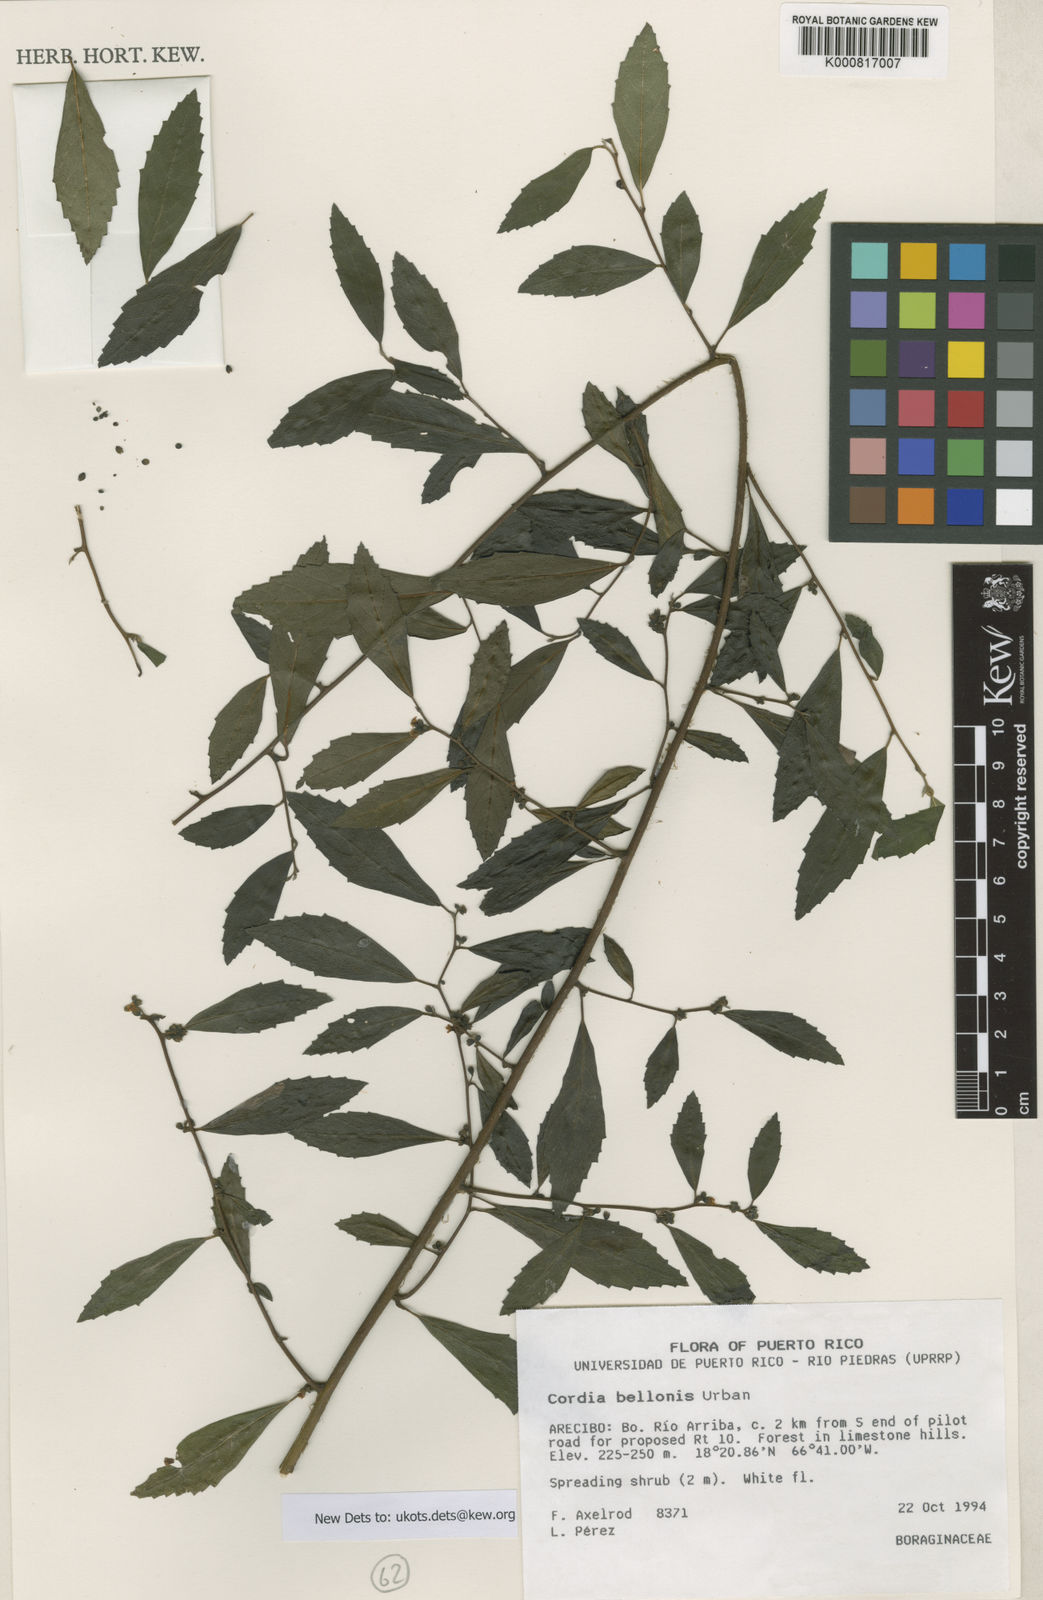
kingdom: Plantae
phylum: Tracheophyta
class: Magnoliopsida
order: Boraginales
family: Cordiaceae
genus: Varronia
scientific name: Varronia bellonis
